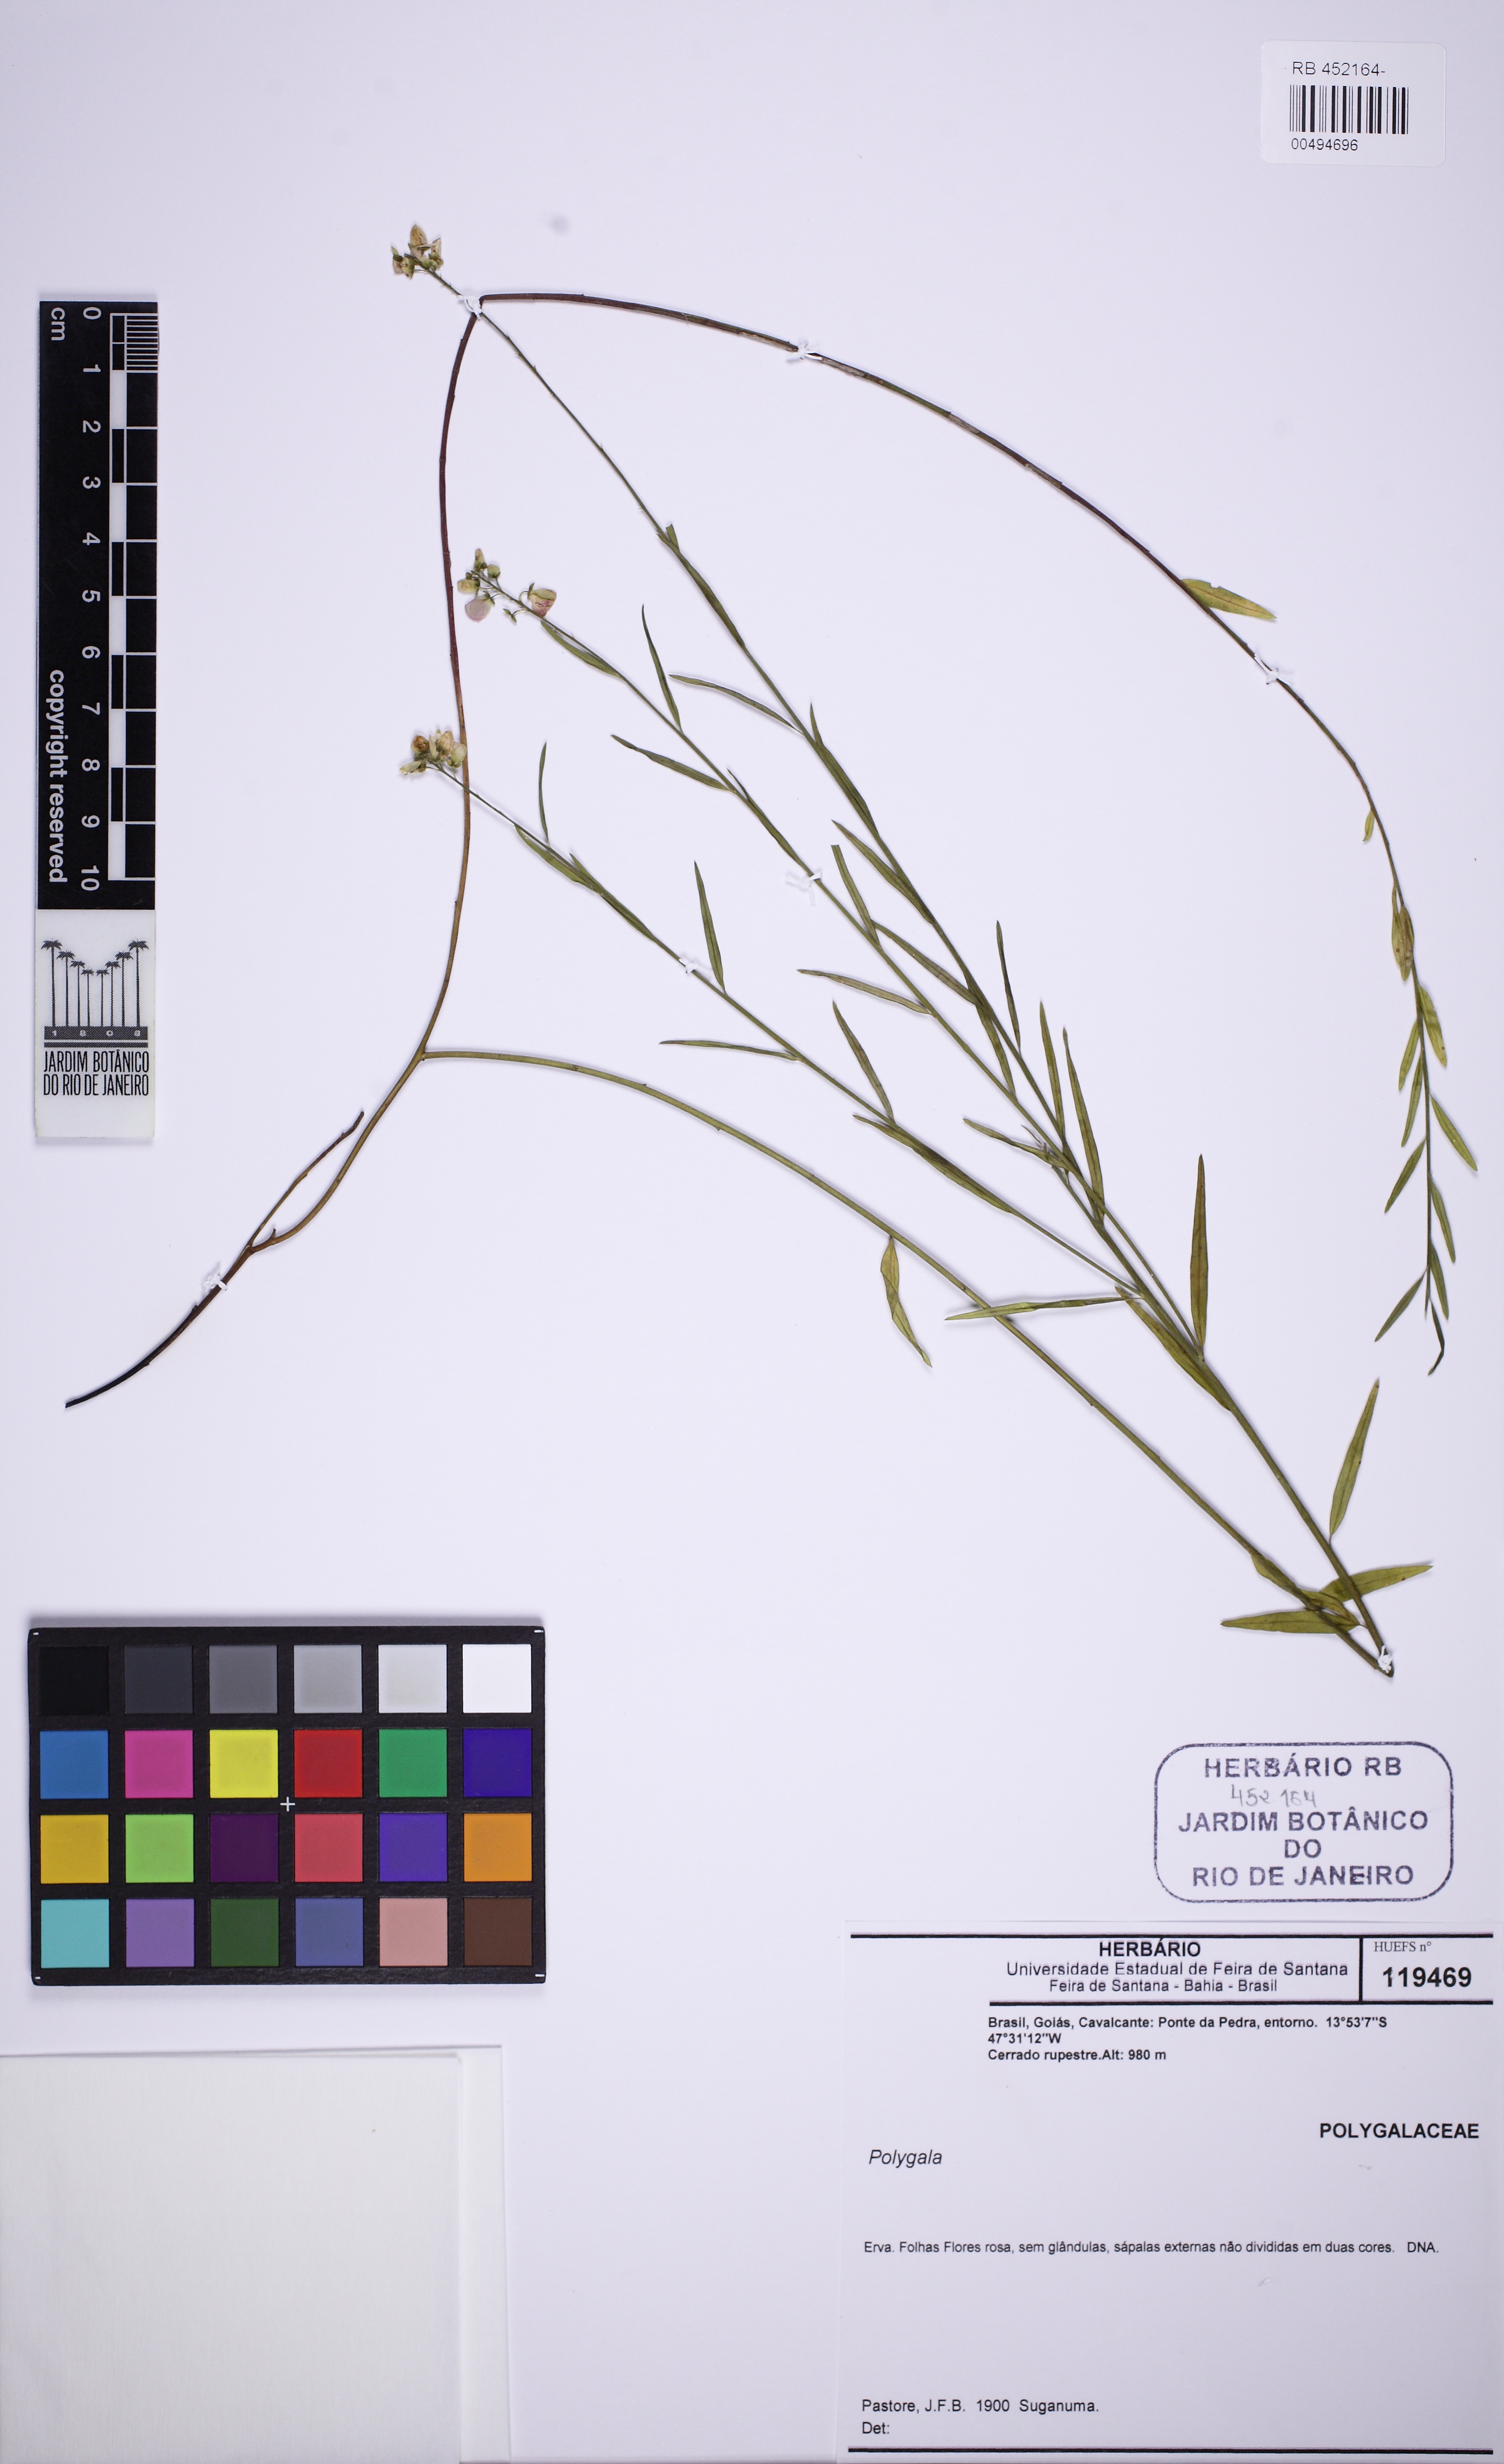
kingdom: Plantae
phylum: Tracheophyta
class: Magnoliopsida
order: Fabales
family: Polygalaceae
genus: Asemeia
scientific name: Asemeia
